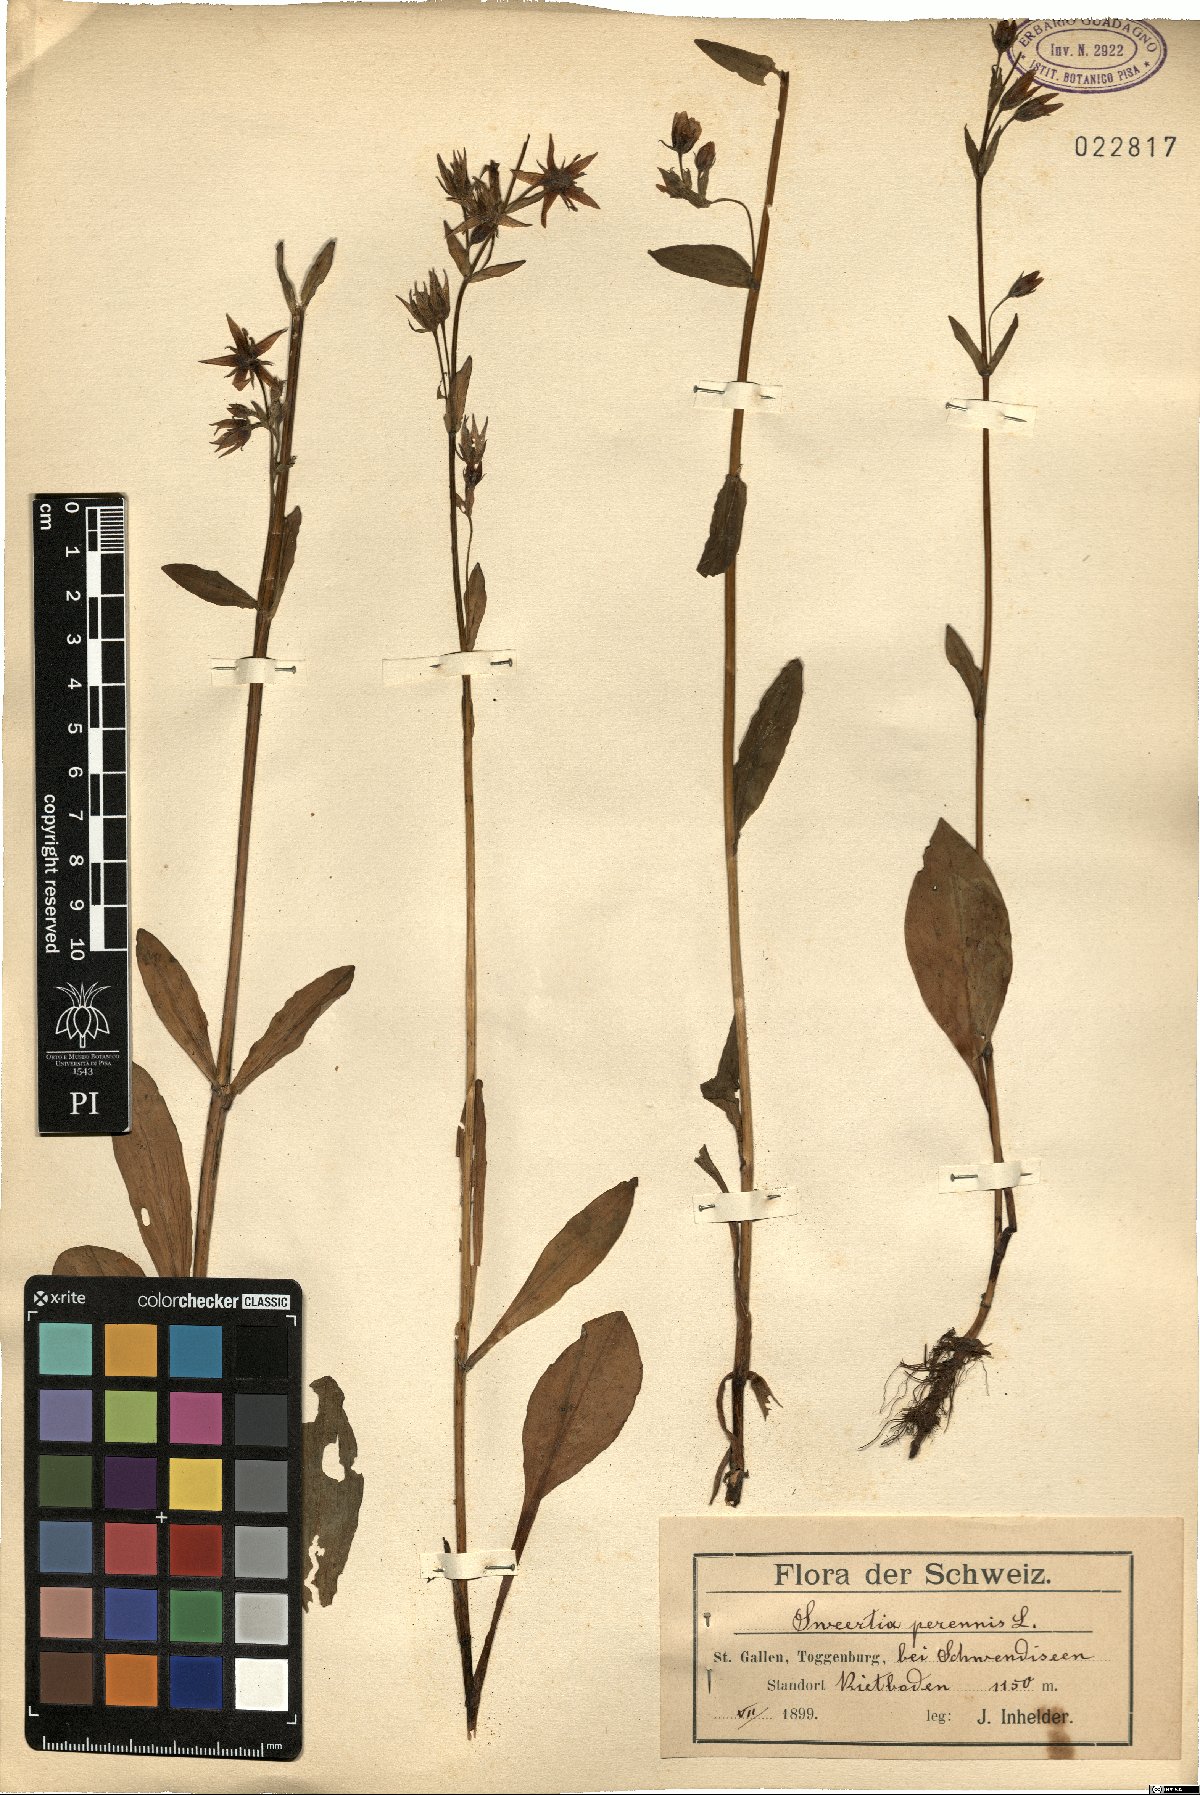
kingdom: Plantae
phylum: Tracheophyta
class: Magnoliopsida
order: Gentianales
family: Gentianaceae
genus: Swertia
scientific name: Swertia perennis
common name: Alpine bog swertia
